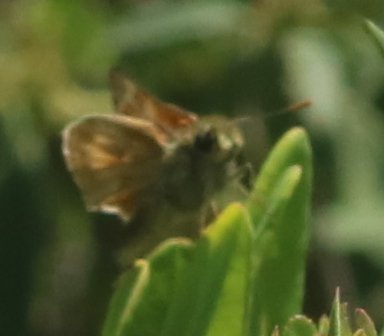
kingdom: Animalia
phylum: Arthropoda
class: Insecta
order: Lepidoptera
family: Hesperiidae
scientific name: Hesperiidae
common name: Skippers
